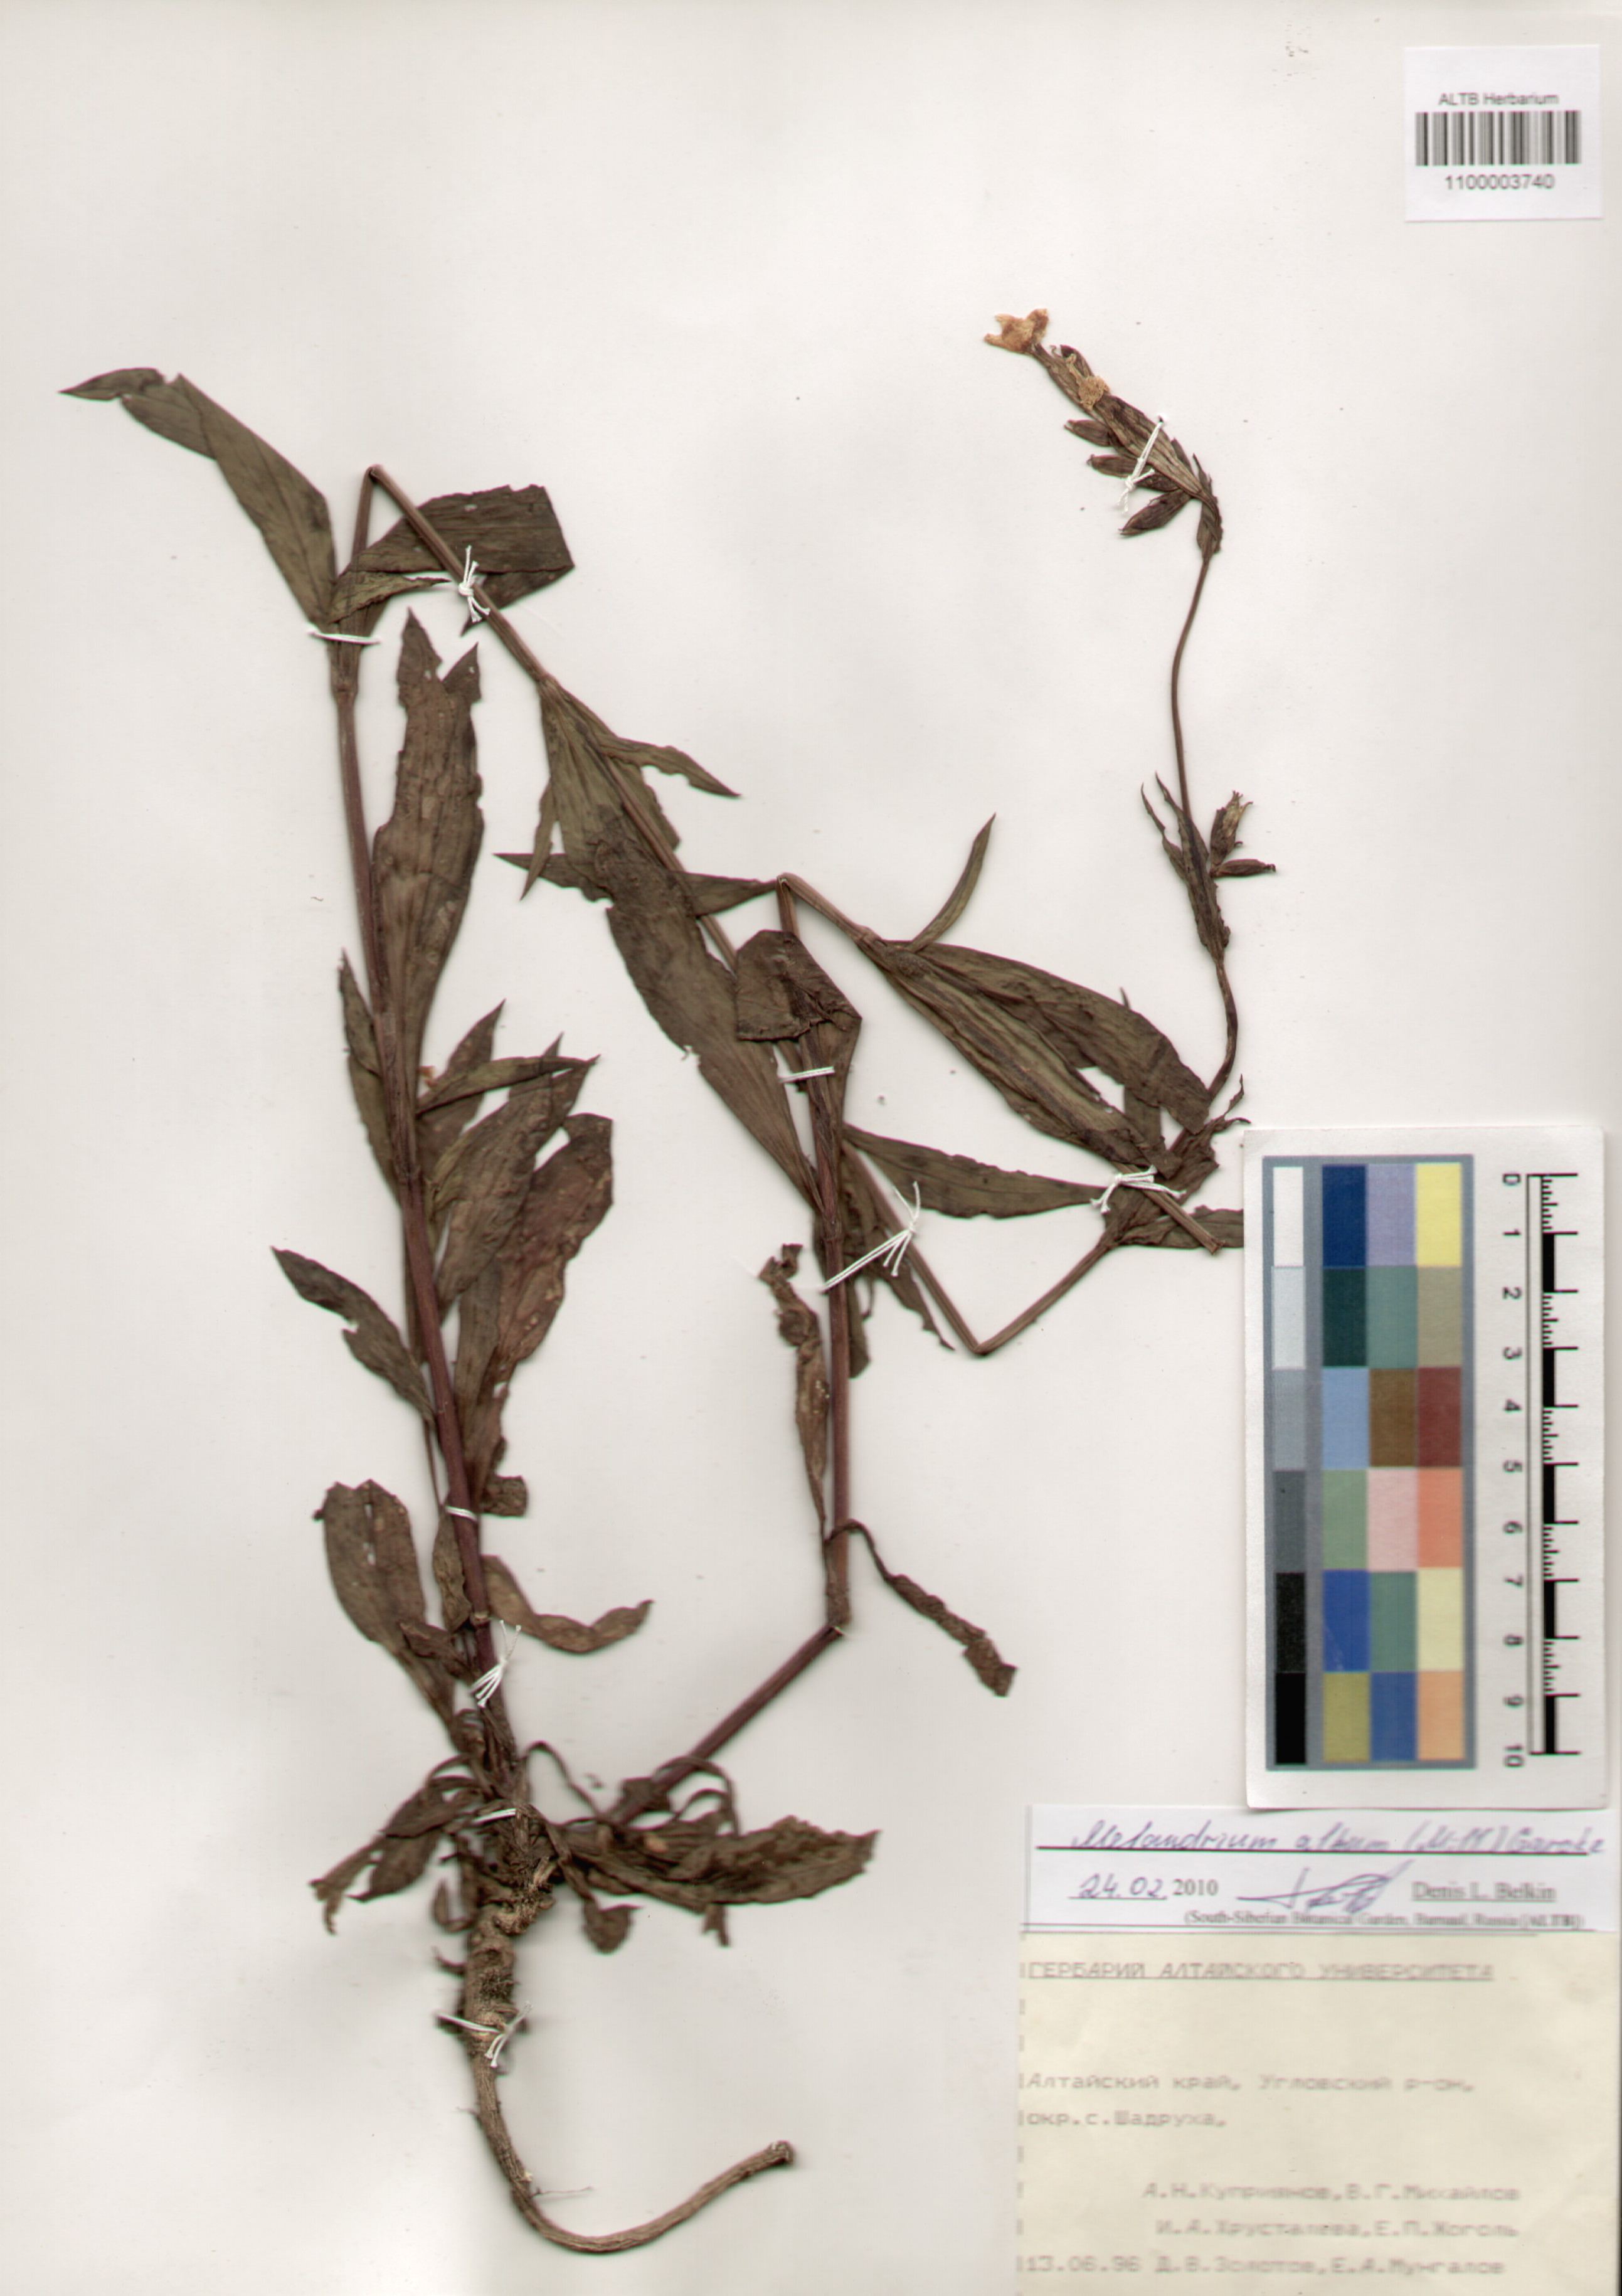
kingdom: Plantae
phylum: Tracheophyta
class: Magnoliopsida
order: Caryophyllales
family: Caryophyllaceae
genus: Silene
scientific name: Silene latifolia
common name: White campion
